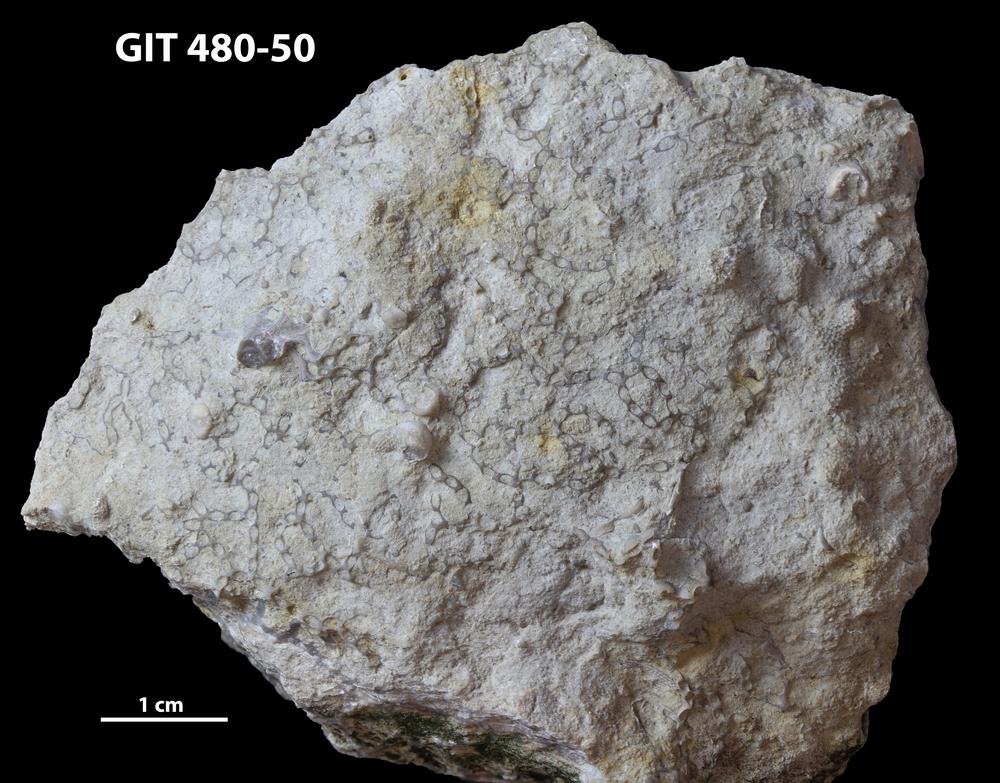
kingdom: Animalia
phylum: Cnidaria
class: Anthozoa
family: Cateniporidae
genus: Catenipora
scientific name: Catenipora
